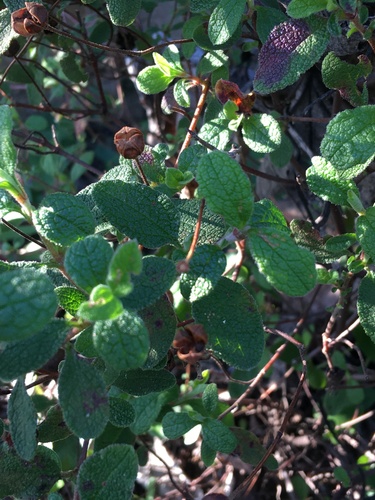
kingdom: Plantae
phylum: Tracheophyta
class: Magnoliopsida
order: Malvales
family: Cistaceae
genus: Cistus
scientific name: Cistus salviifolius
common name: Salvia cistus
